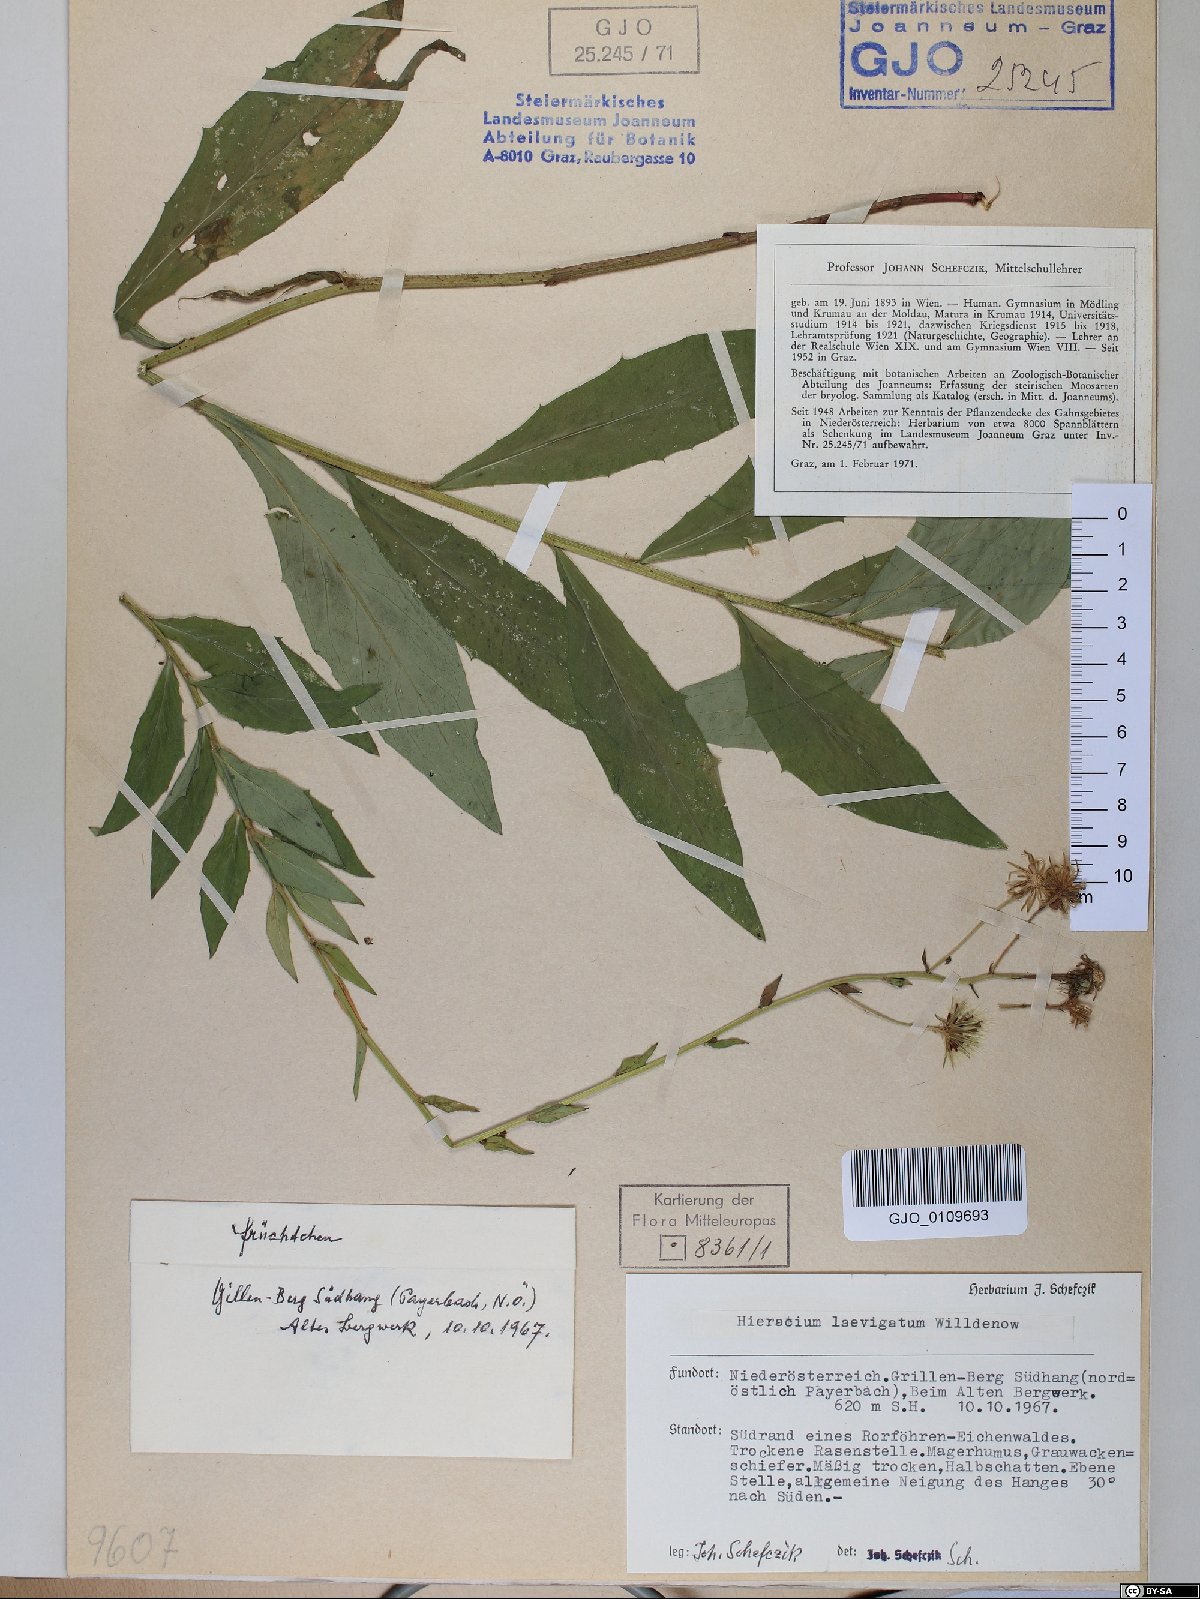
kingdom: Plantae
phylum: Tracheophyta
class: Magnoliopsida
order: Asterales
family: Asteraceae
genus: Hieracium
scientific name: Hieracium laevigatum
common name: Smooth hawkweed
